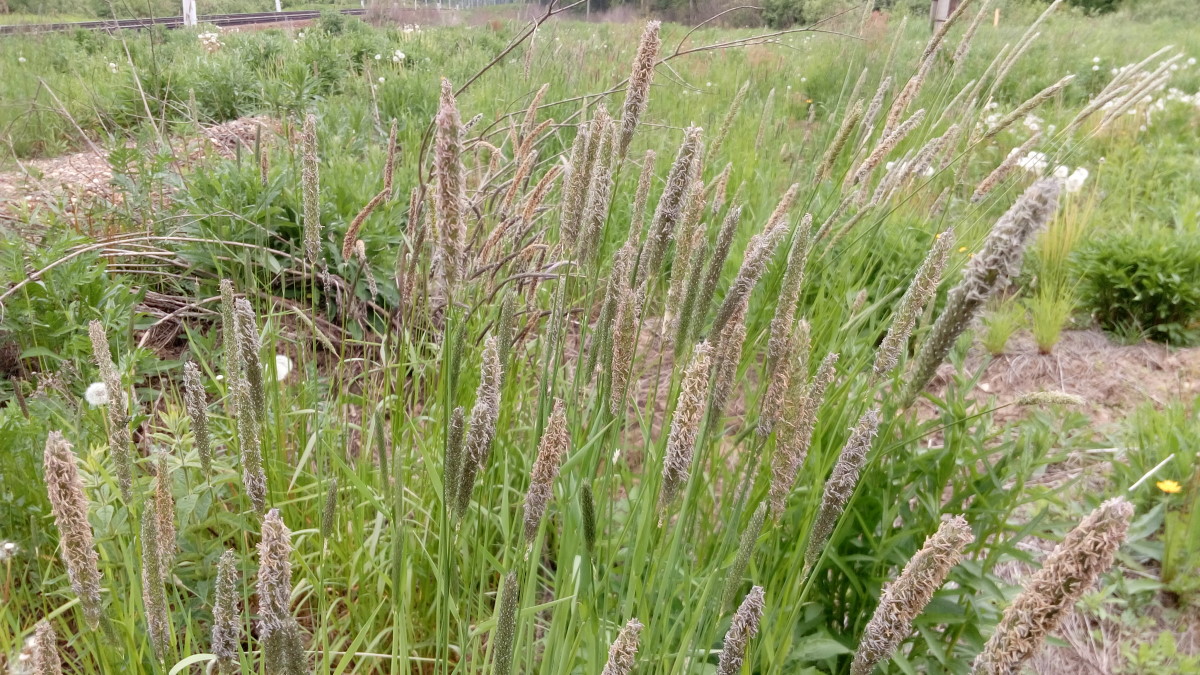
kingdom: Plantae
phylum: Tracheophyta
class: Liliopsida
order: Poales
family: Poaceae
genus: Alopecurus
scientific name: Alopecurus pratensis
